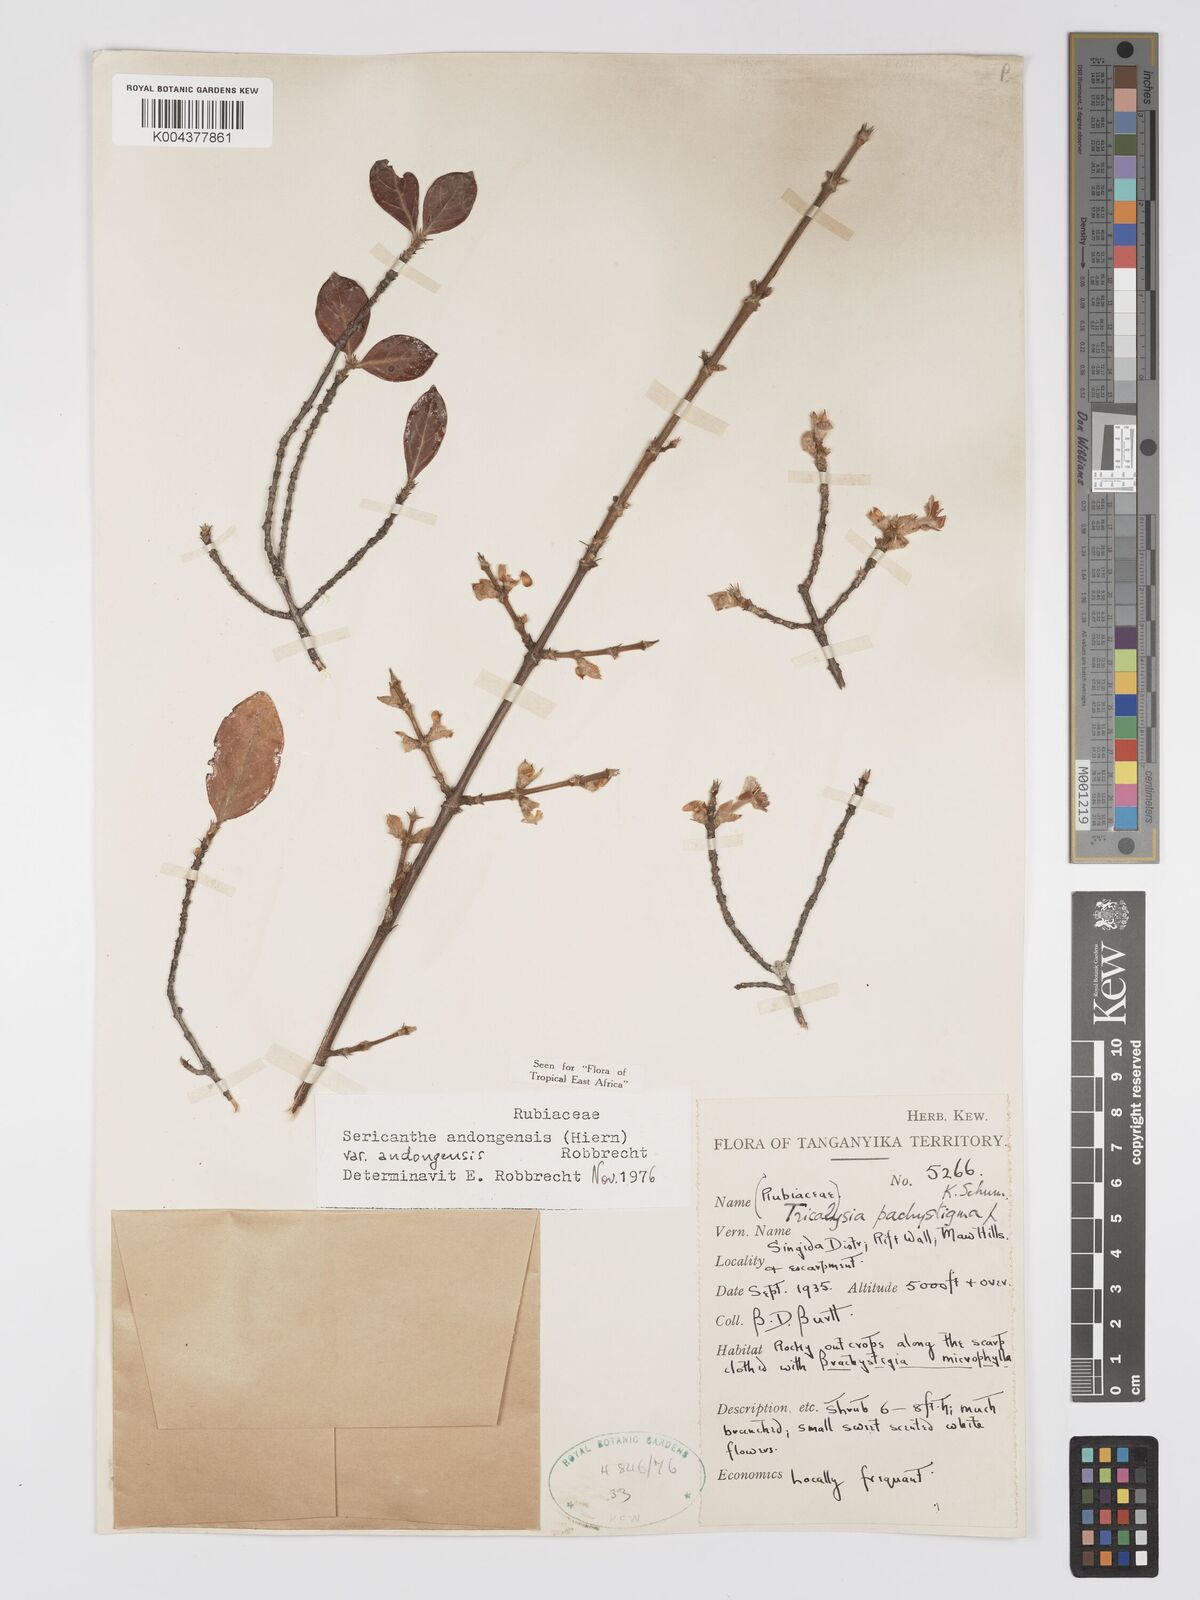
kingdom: Plantae
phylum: Tracheophyta
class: Magnoliopsida
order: Gentianales
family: Rubiaceae
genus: Sericanthe
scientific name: Sericanthe andongensis
